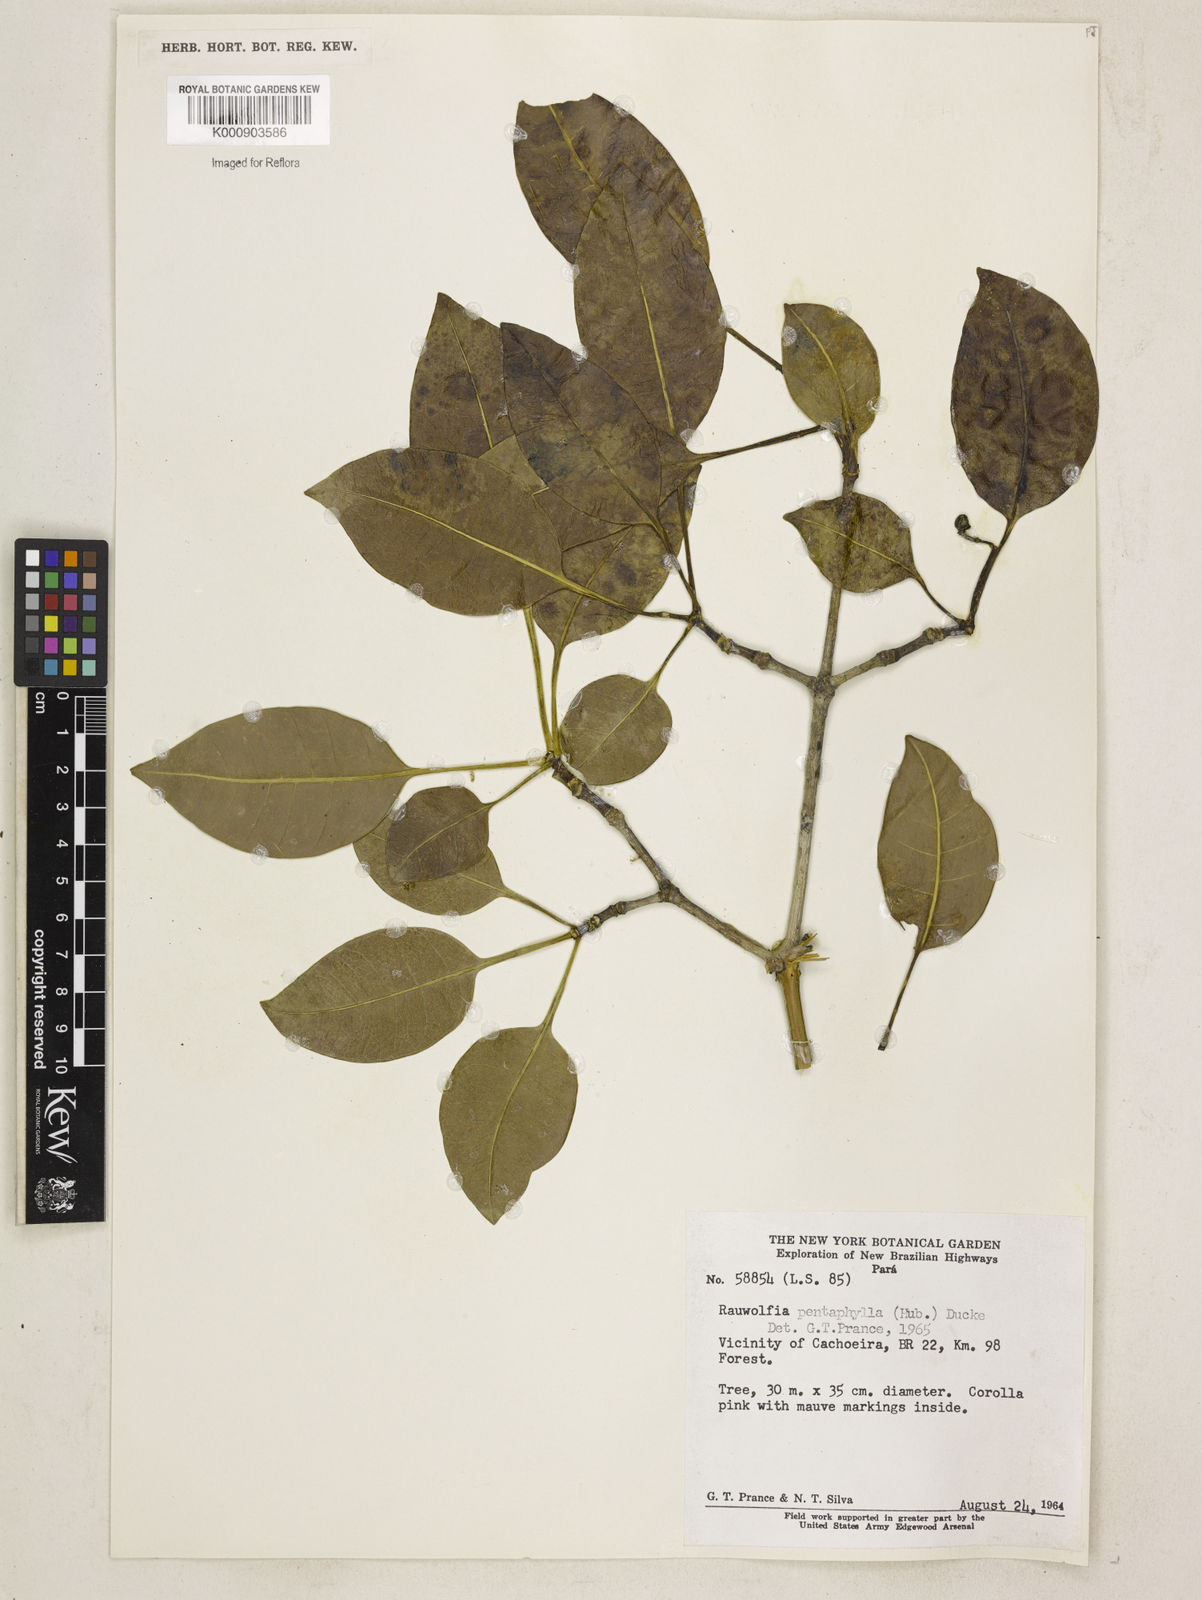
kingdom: Plantae
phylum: Tracheophyta
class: Magnoliopsida
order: Gentianales
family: Apocynaceae
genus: Rauvolfia
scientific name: Rauvolfia pentaphylla
